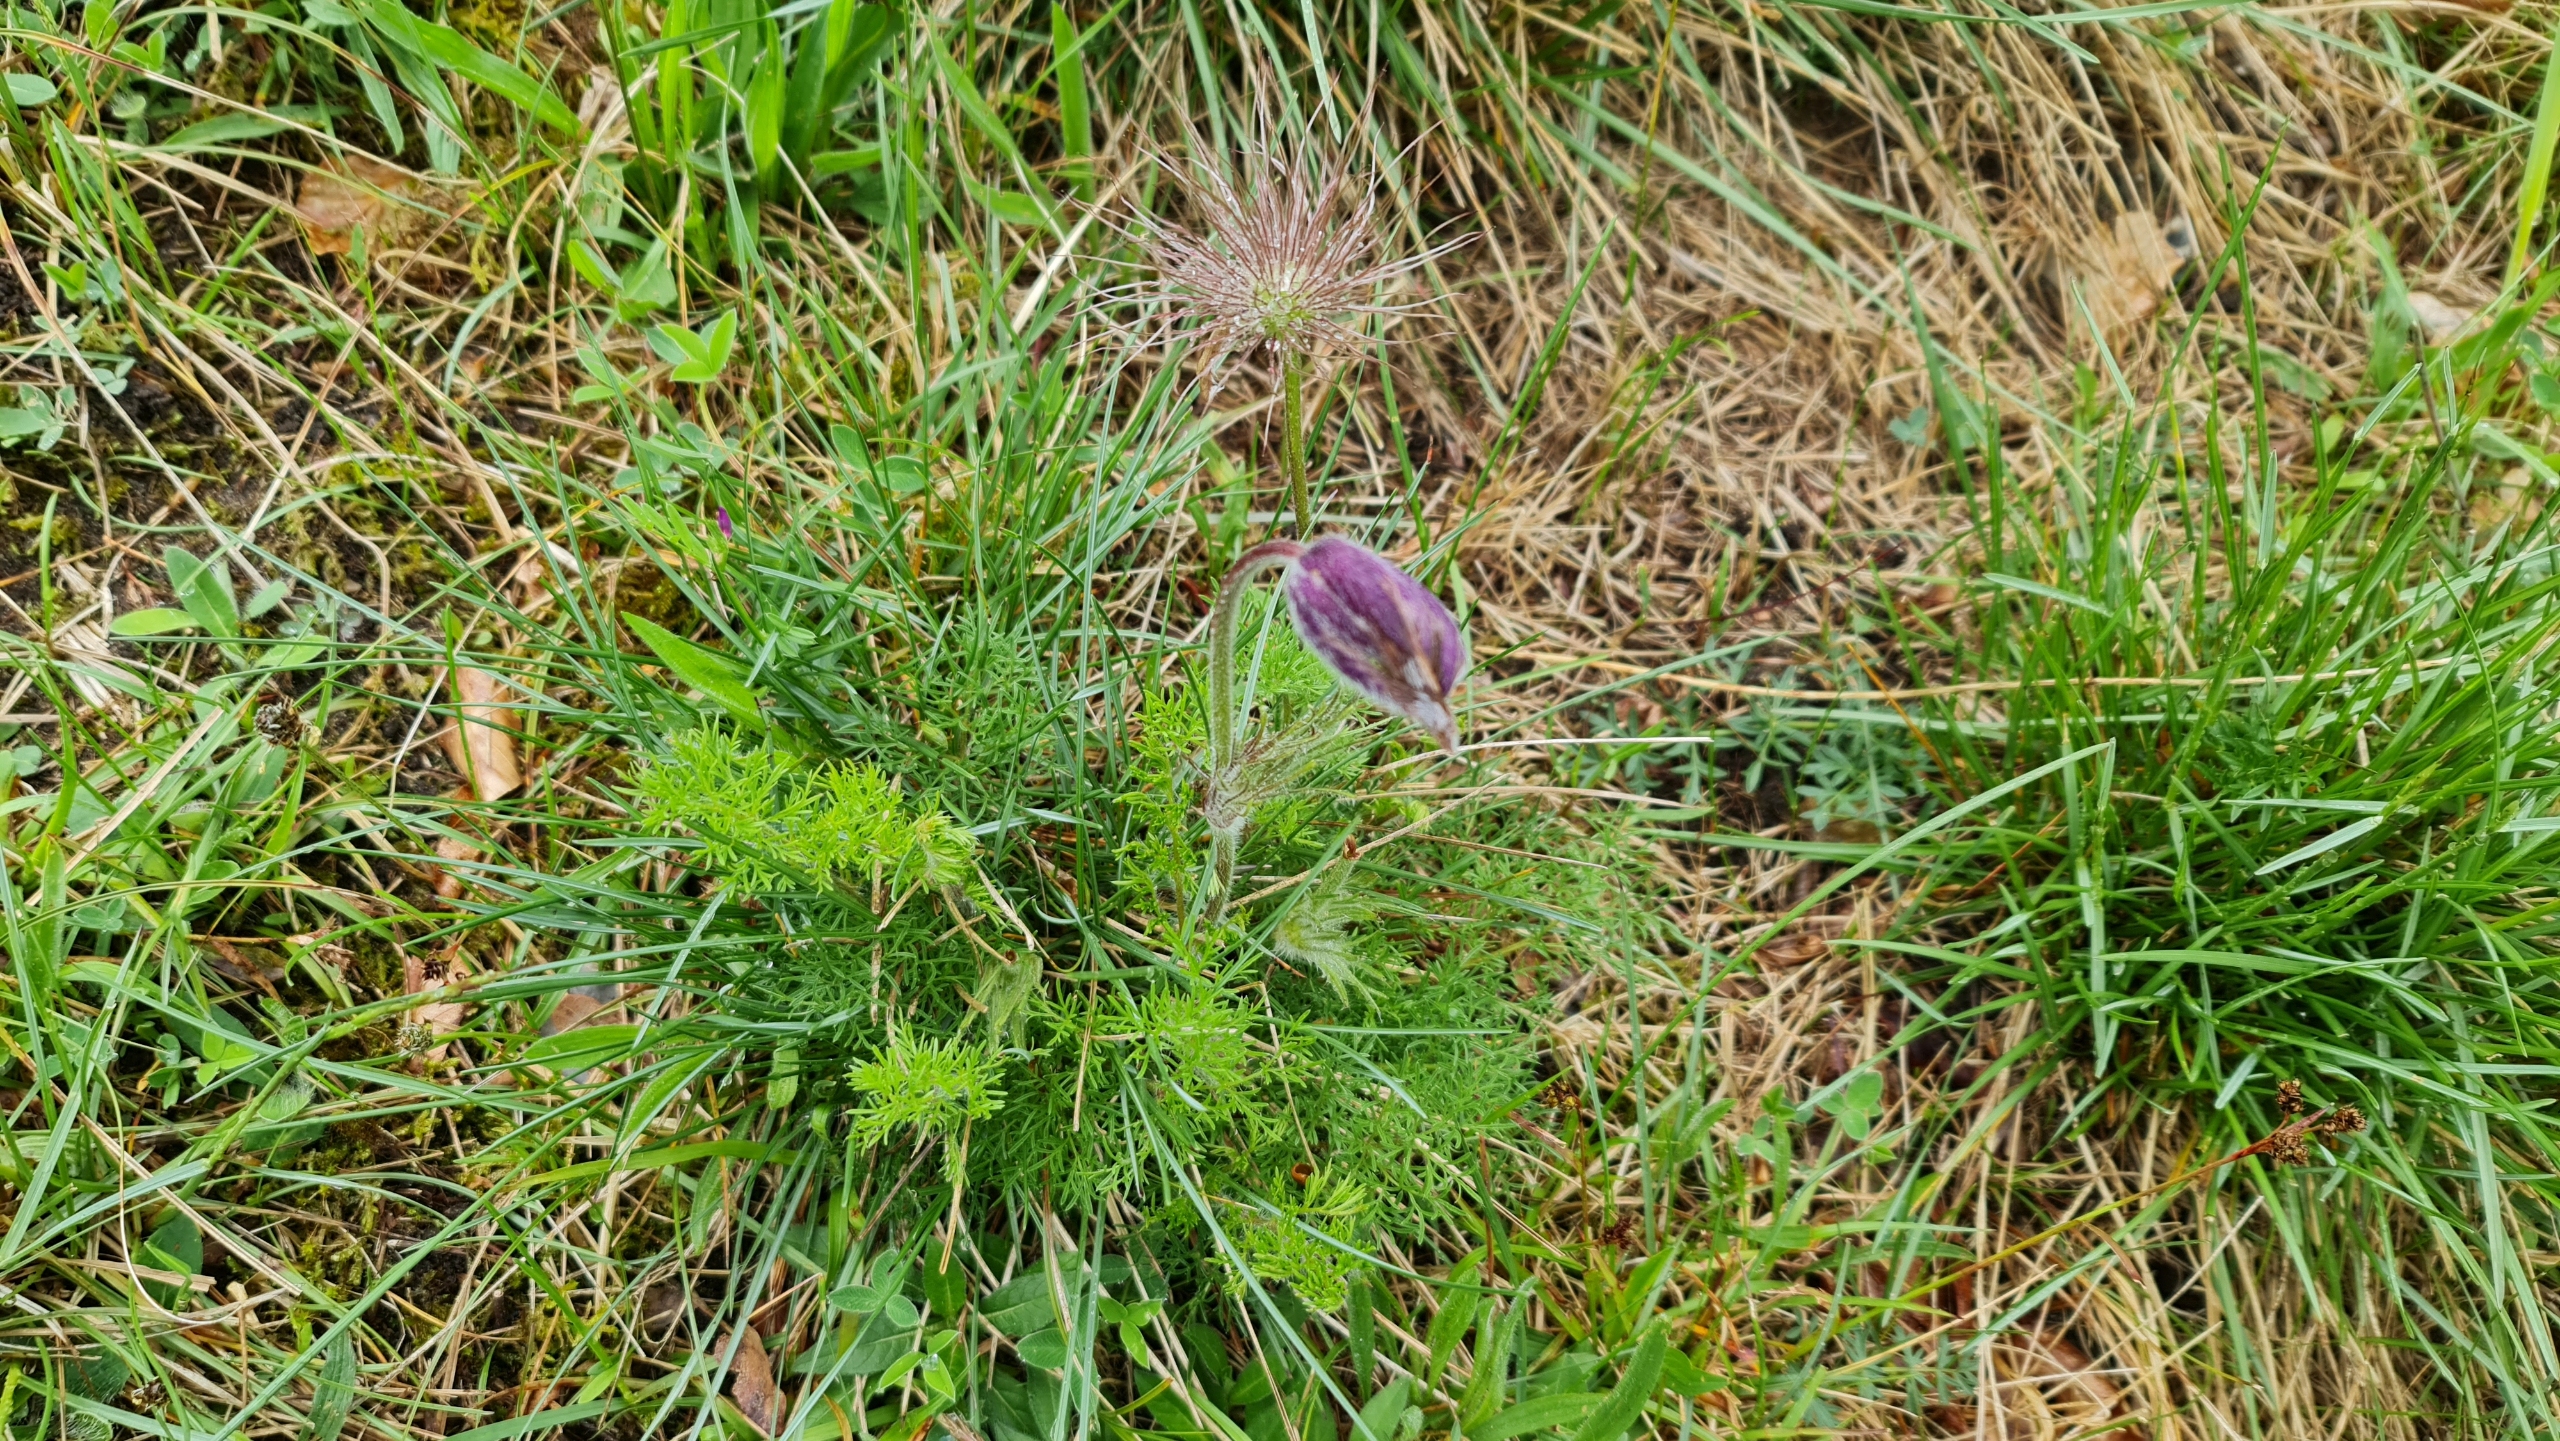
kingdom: Plantae
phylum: Tracheophyta
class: Magnoliopsida
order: Ranunculales
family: Ranunculaceae
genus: Pulsatilla
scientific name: Pulsatilla vulgaris
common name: Opret kobjælde
